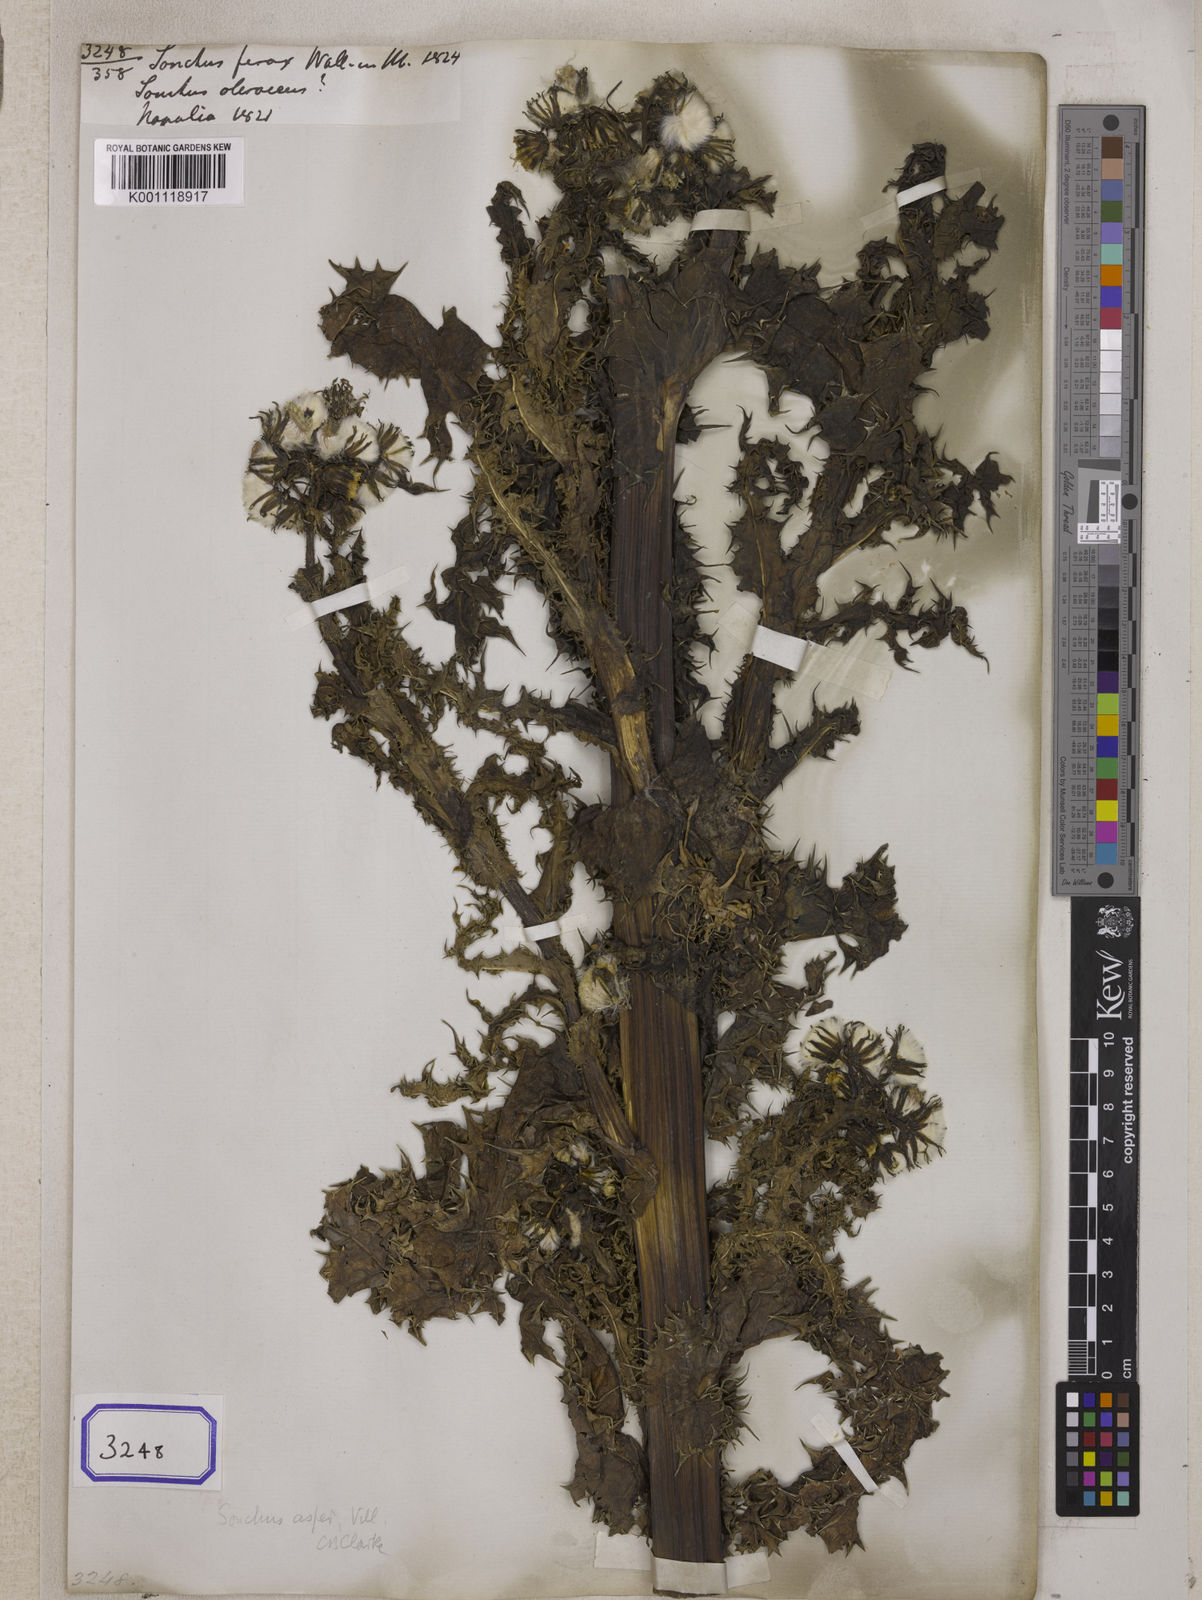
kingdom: Plantae
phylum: Tracheophyta
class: Magnoliopsida
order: Asterales
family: Asteraceae
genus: Sonchus
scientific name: Sonchus asper
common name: Prickly sow-thistle
